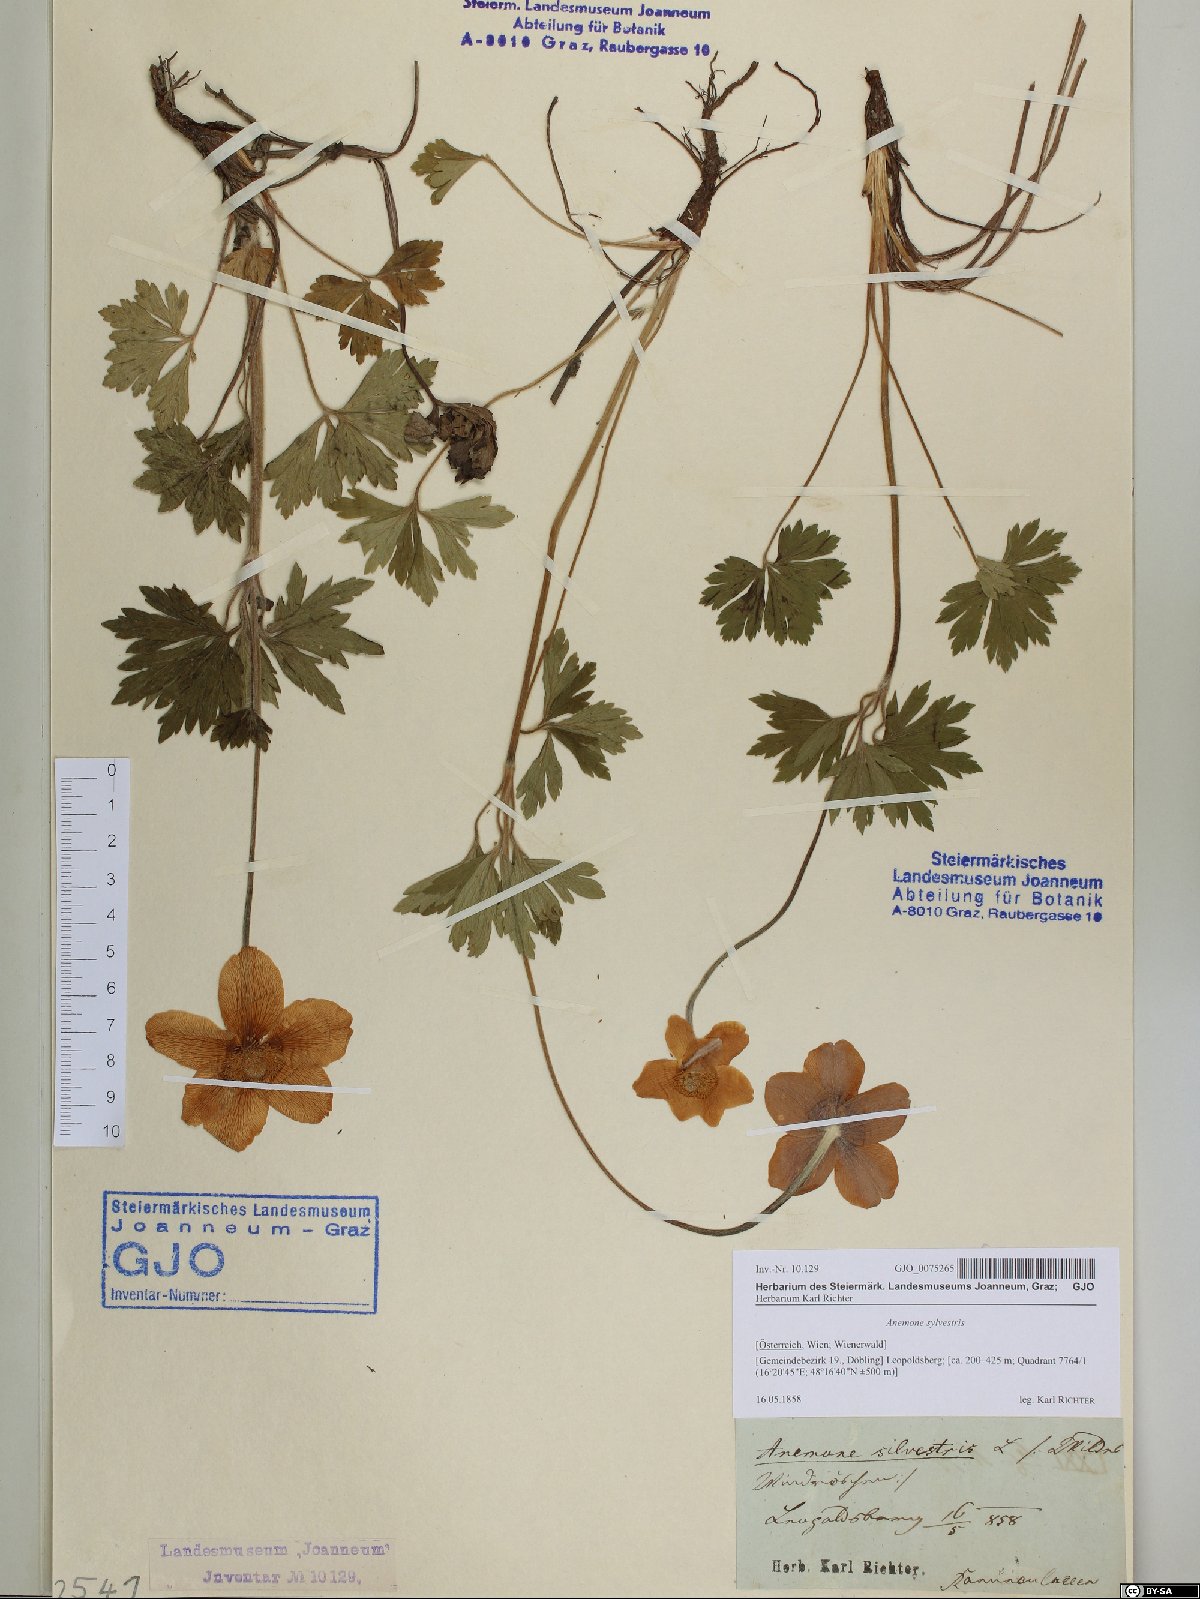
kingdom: Plantae
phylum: Tracheophyta
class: Magnoliopsida
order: Ranunculales
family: Ranunculaceae
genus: Anemone
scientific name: Anemone sylvestris
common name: Snowdrop anemone
